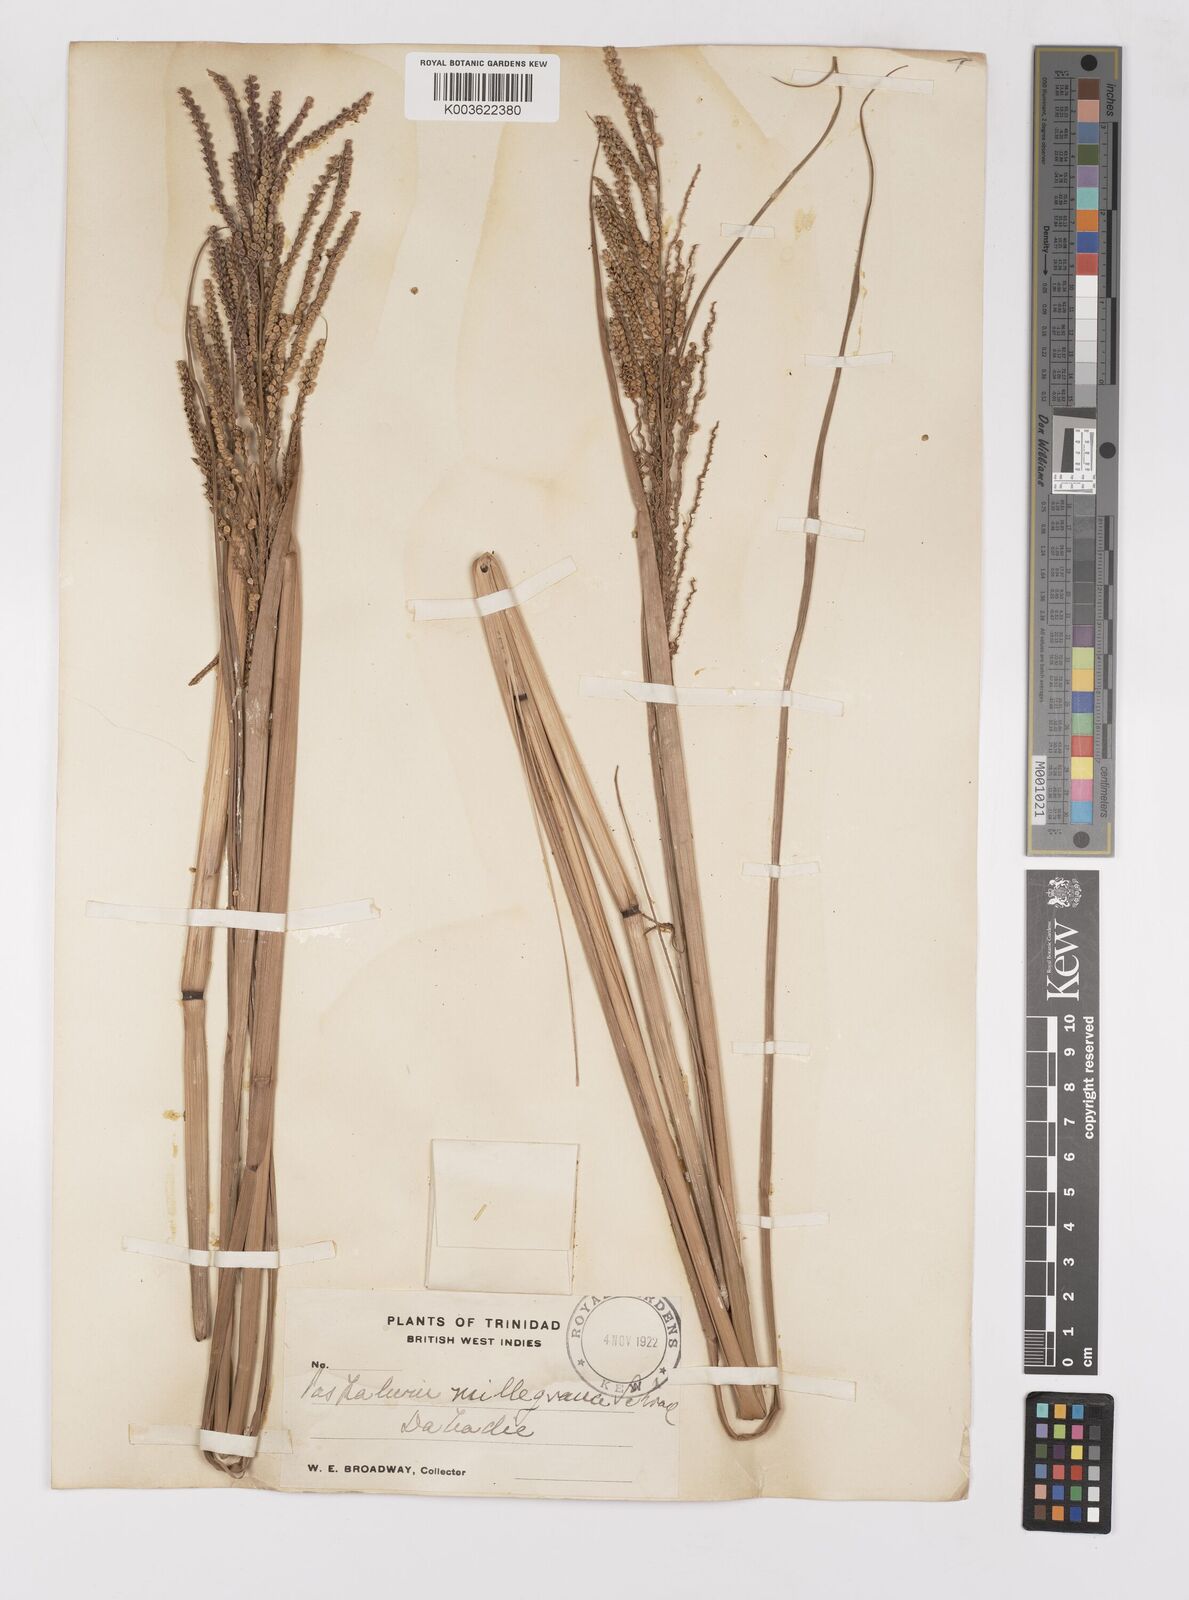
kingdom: Plantae
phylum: Tracheophyta
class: Liliopsida
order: Poales
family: Poaceae
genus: Paspalum
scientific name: Paspalum millegranum
